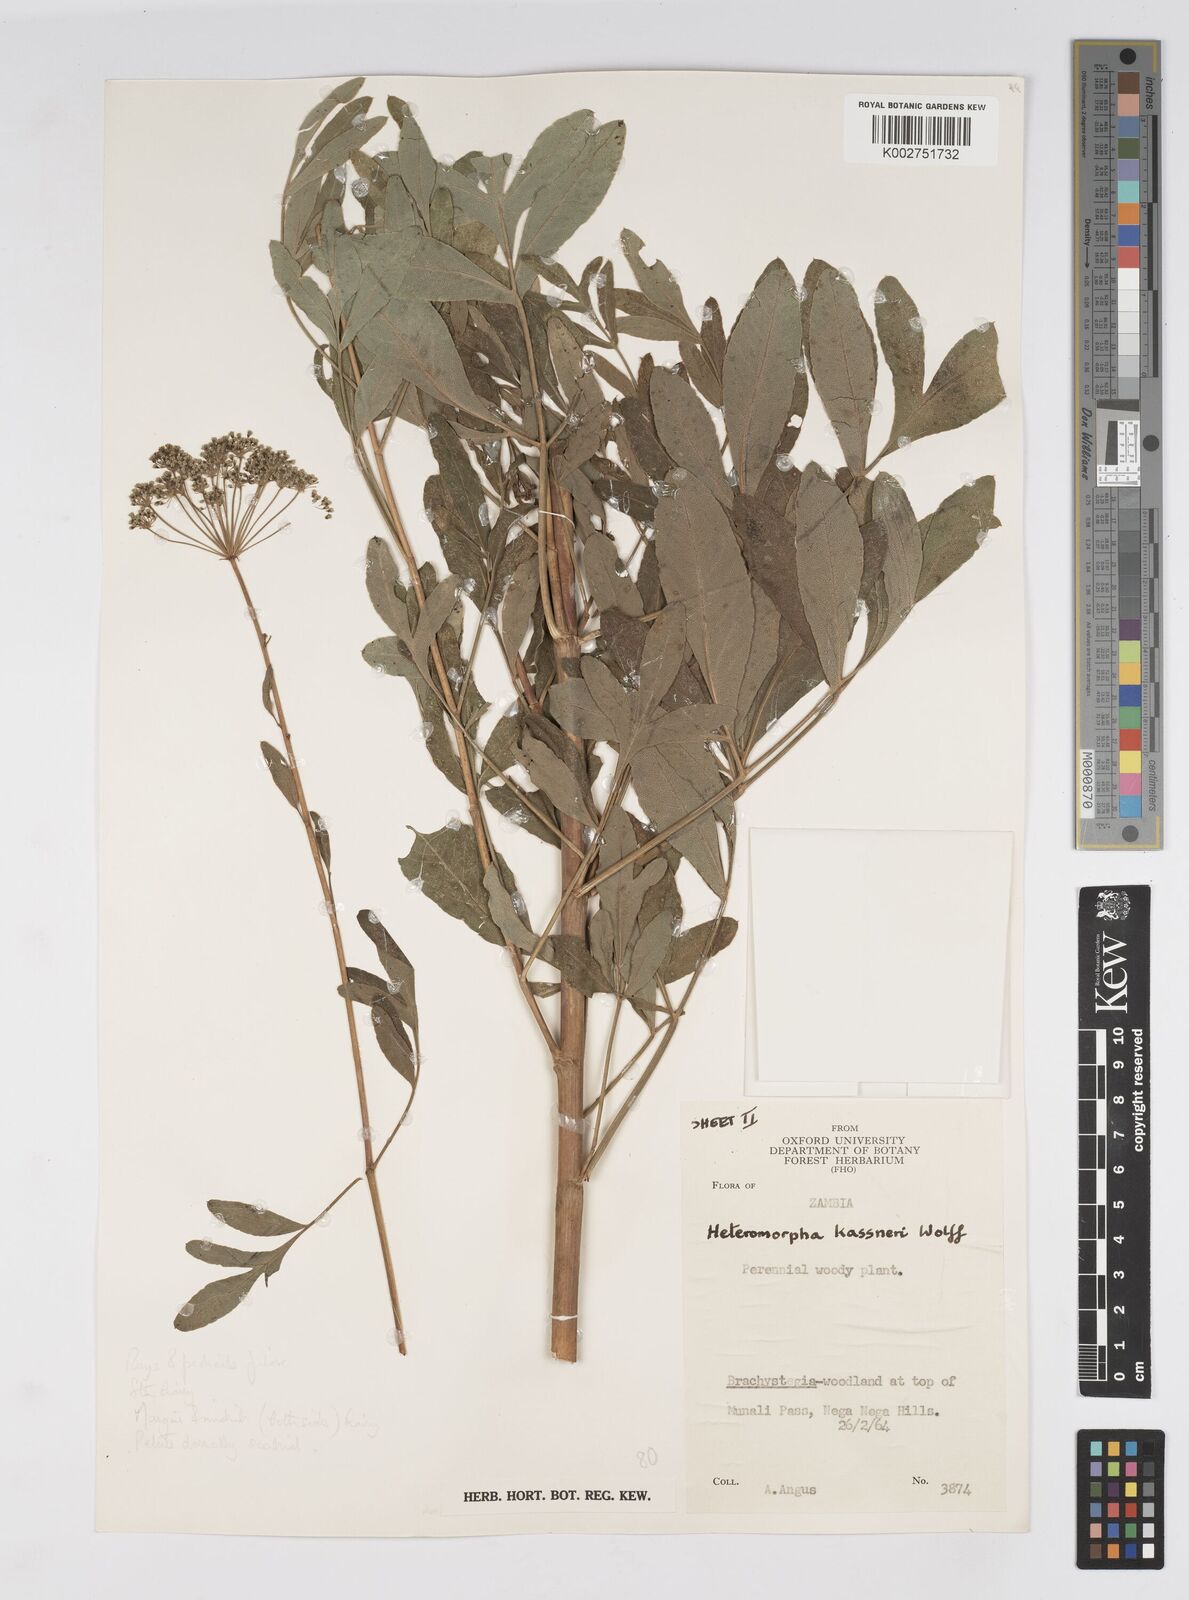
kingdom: Plantae
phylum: Tracheophyta
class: Magnoliopsida
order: Apiales
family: Apiaceae
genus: Heteromorpha
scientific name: Heteromorpha involucrata
